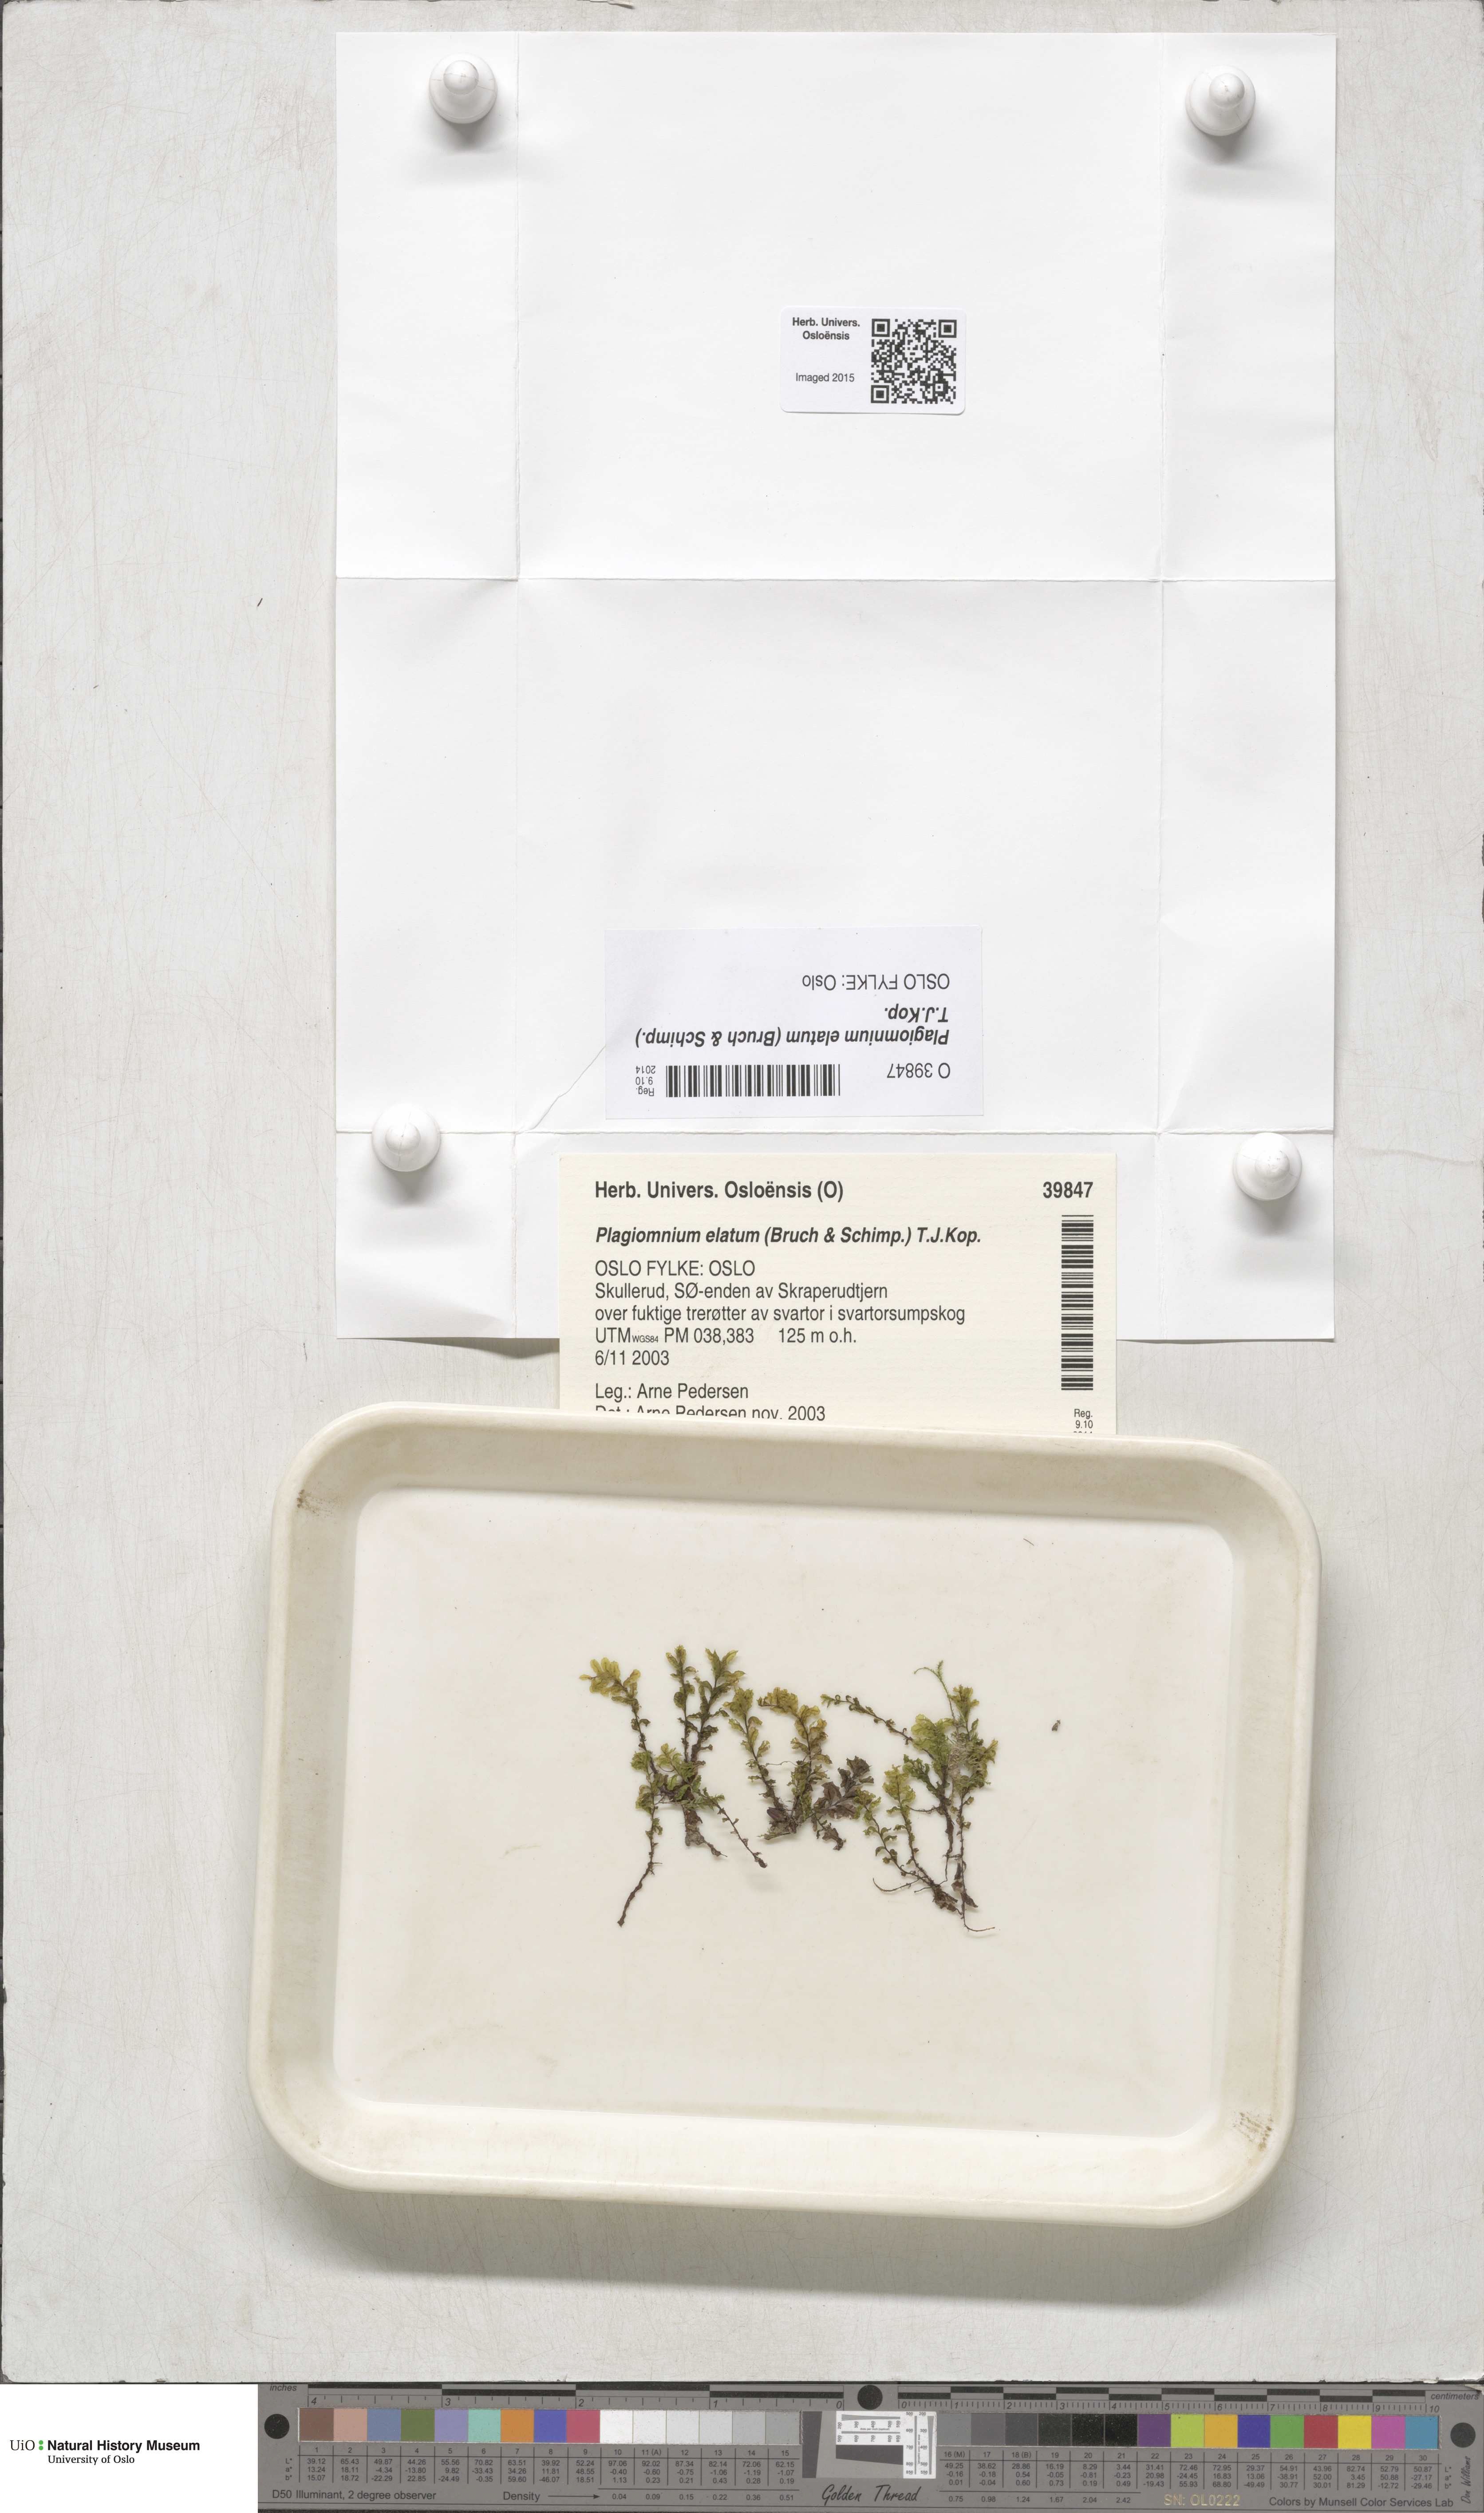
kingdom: Plantae
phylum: Bryophyta
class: Bryopsida
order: Bryales
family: Mniaceae
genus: Plagiomnium
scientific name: Plagiomnium elatum
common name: Tall thyme-moss
